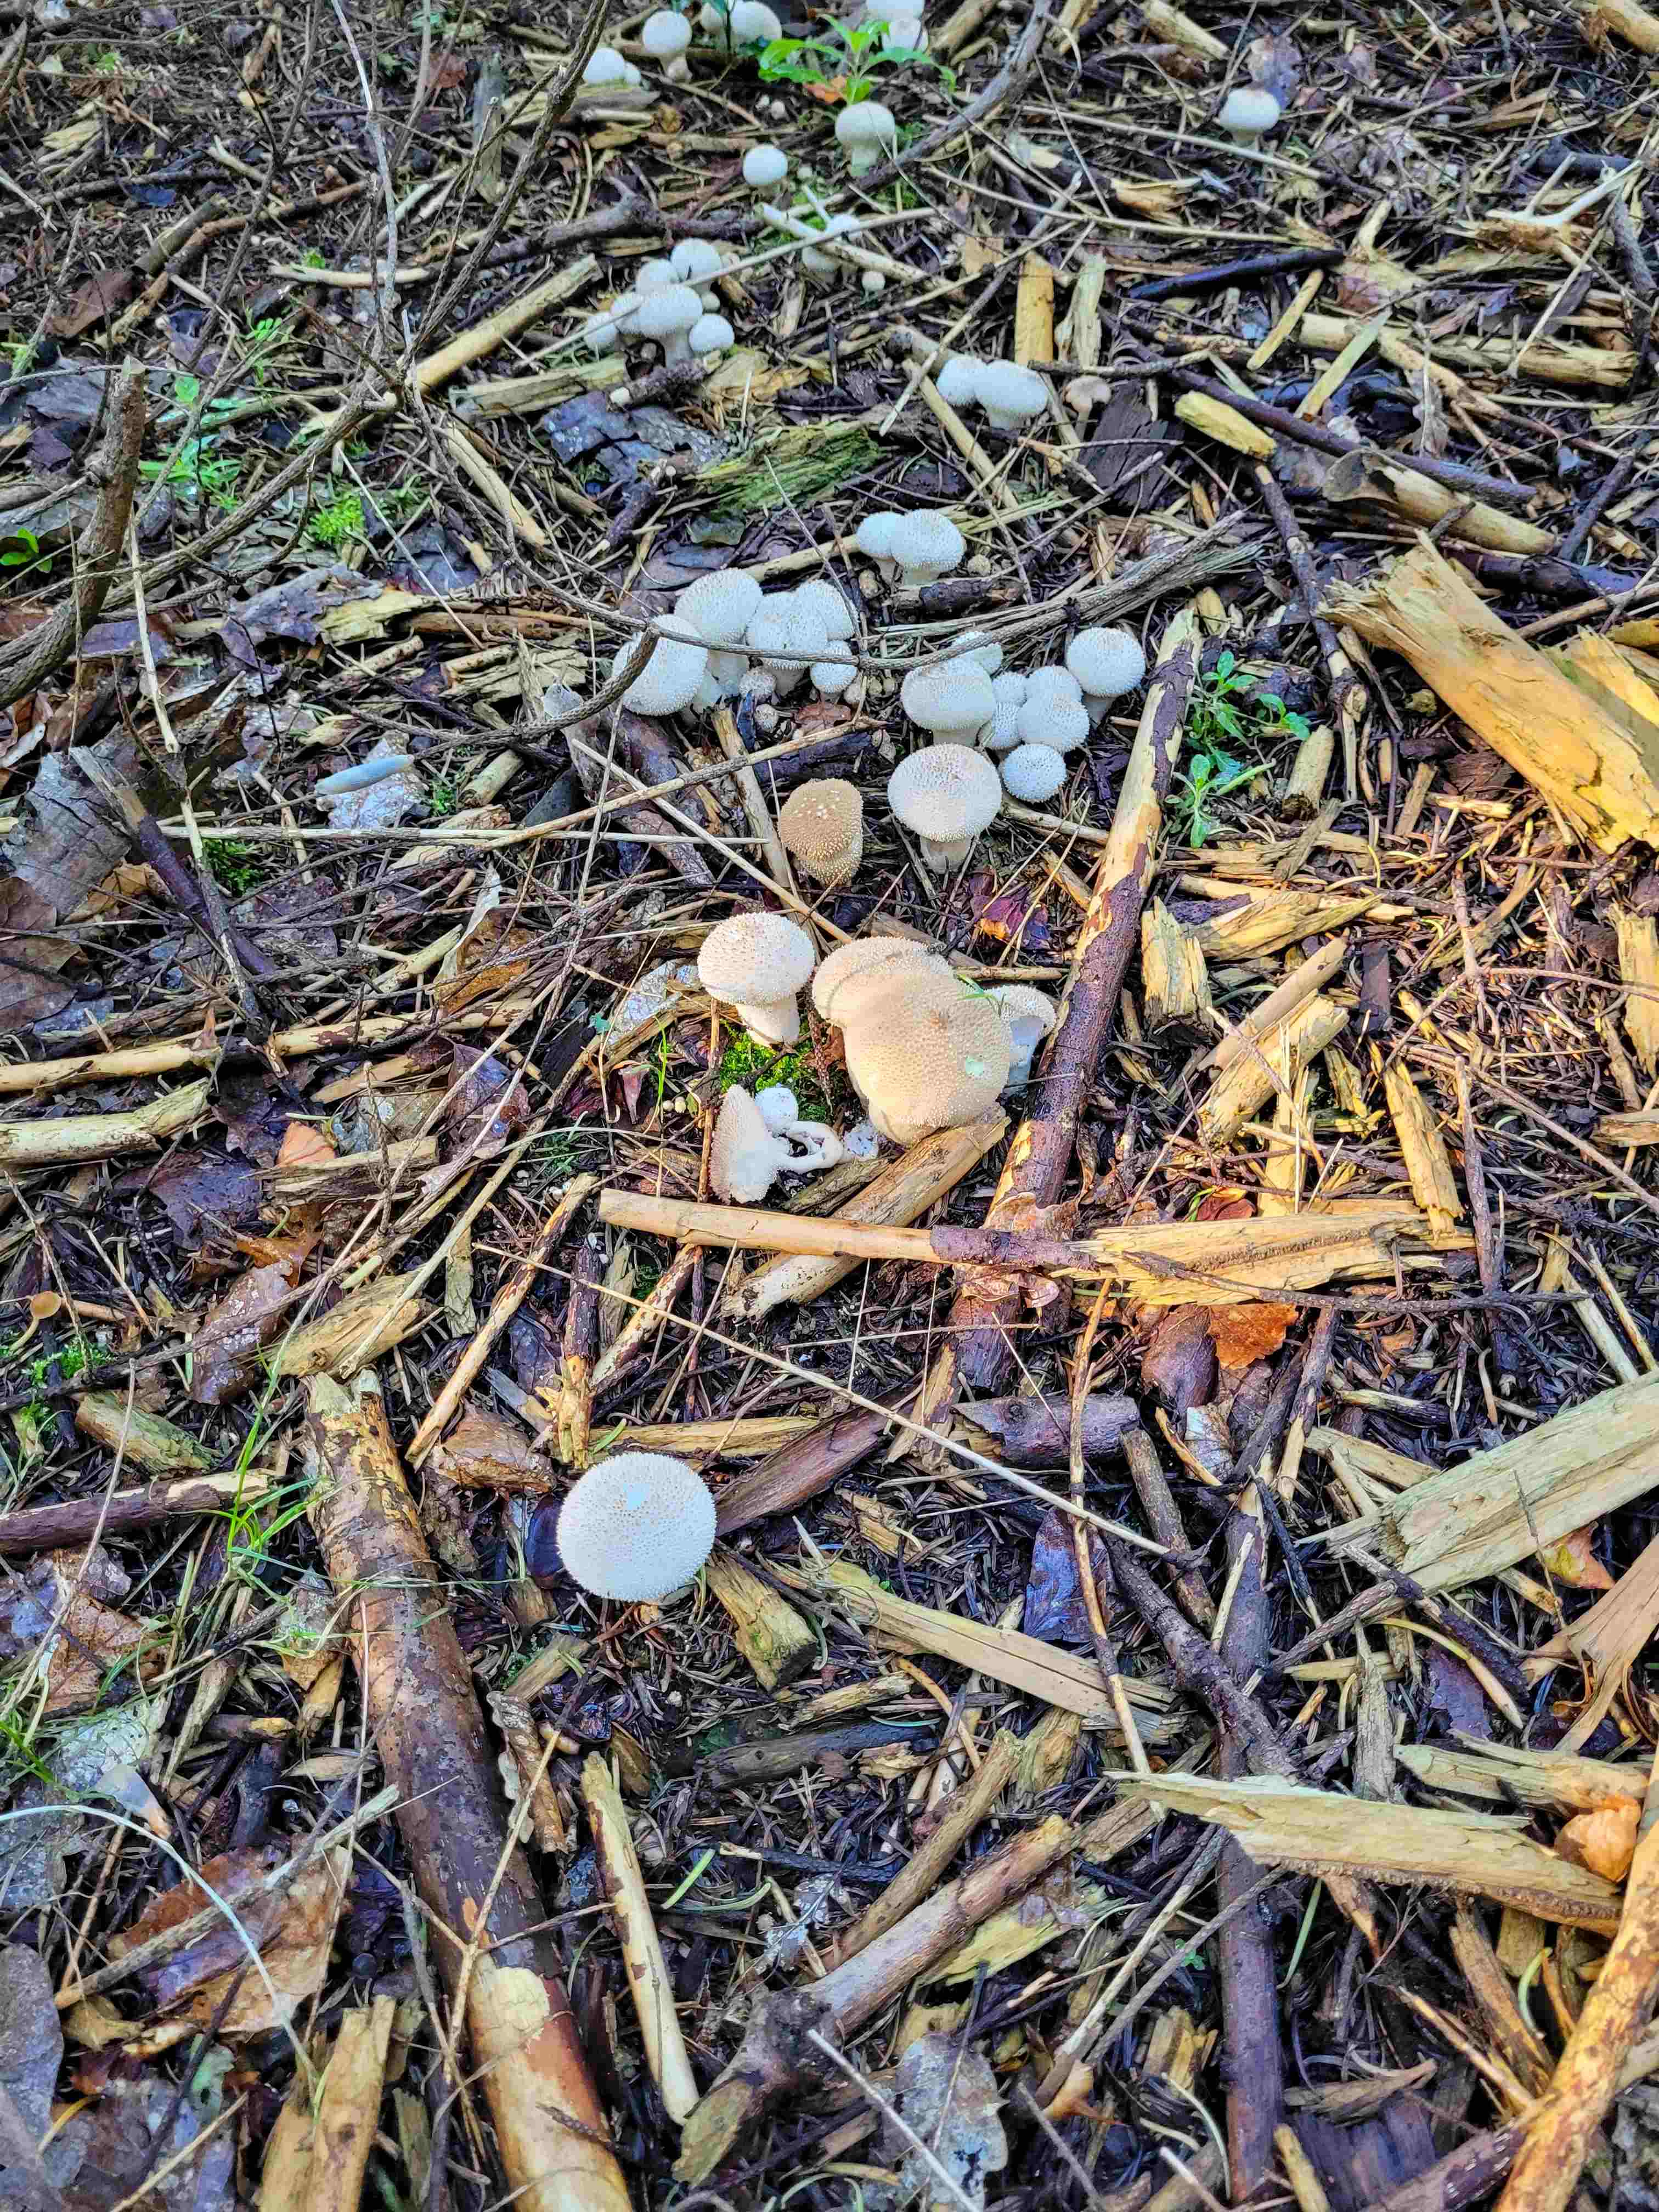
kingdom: Fungi
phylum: Basidiomycota
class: Agaricomycetes
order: Agaricales
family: Lycoperdaceae
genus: Lycoperdon
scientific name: Lycoperdon perlatum
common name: krystal-støvbold
